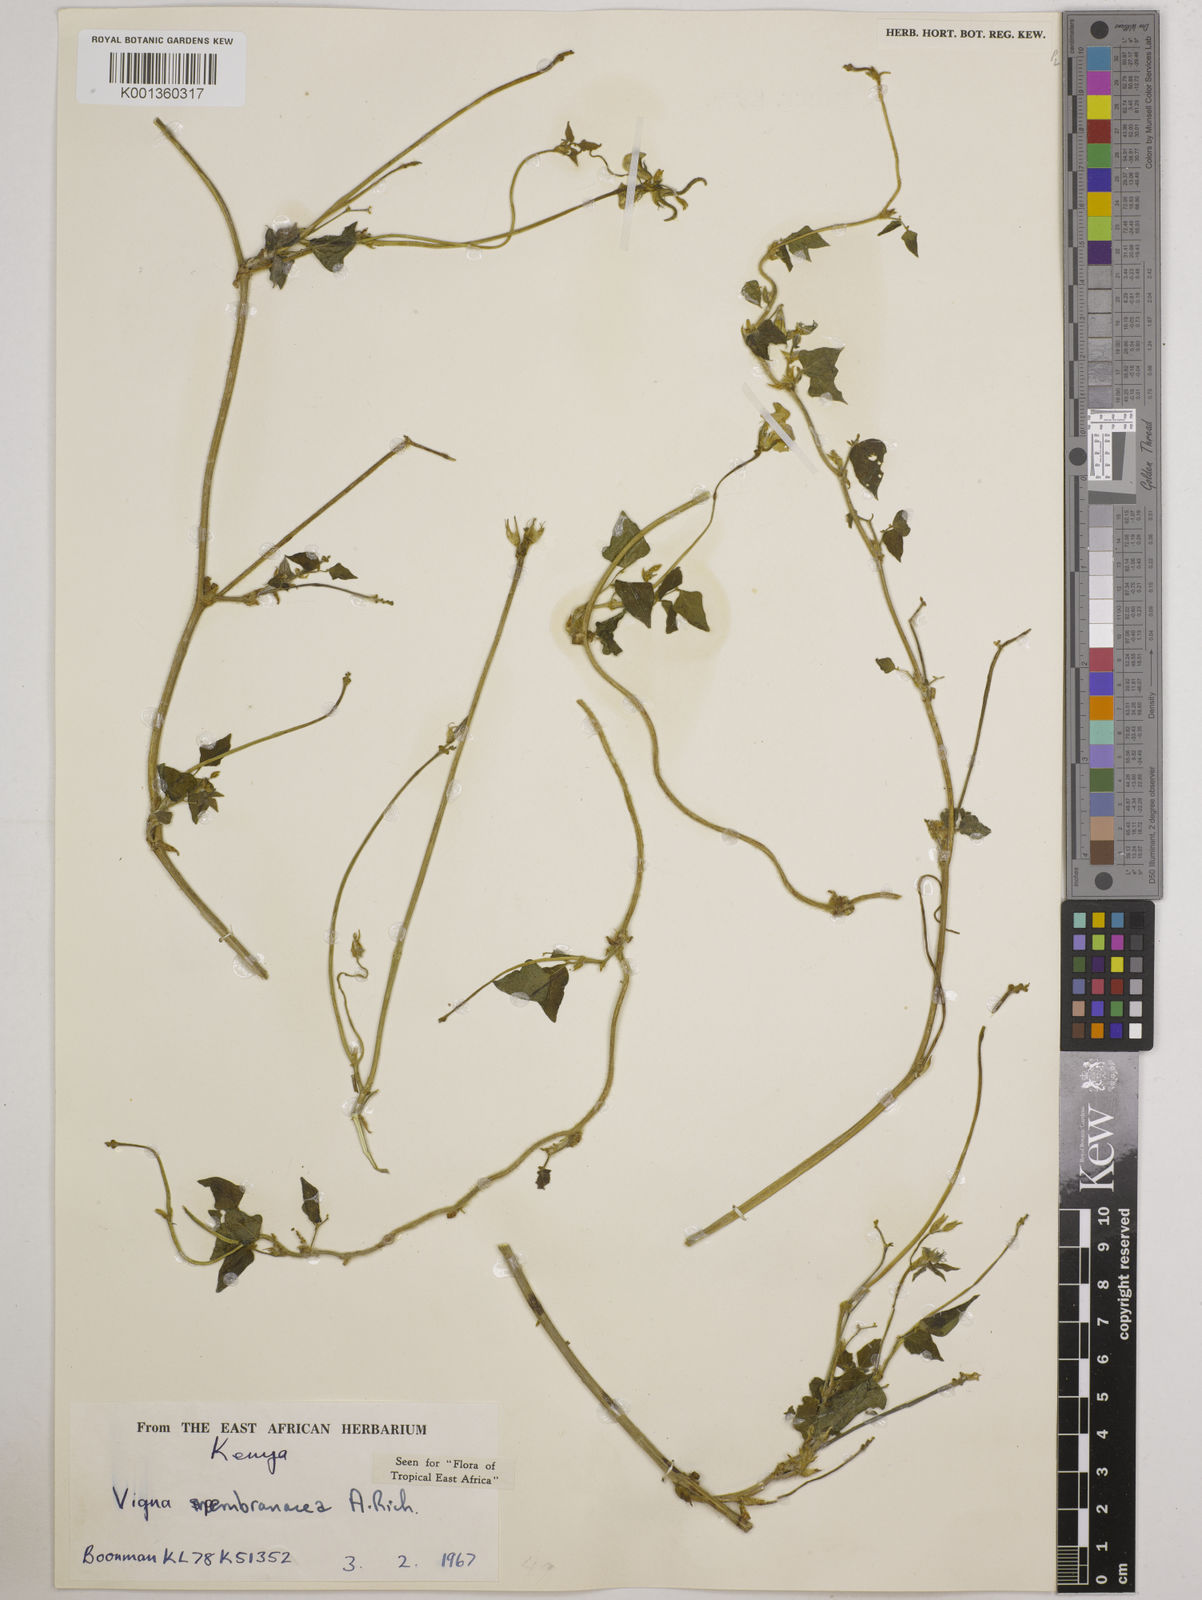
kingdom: Plantae
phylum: Tracheophyta
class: Magnoliopsida
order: Fabales
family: Fabaceae
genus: Vigna
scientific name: Vigna membranacea
